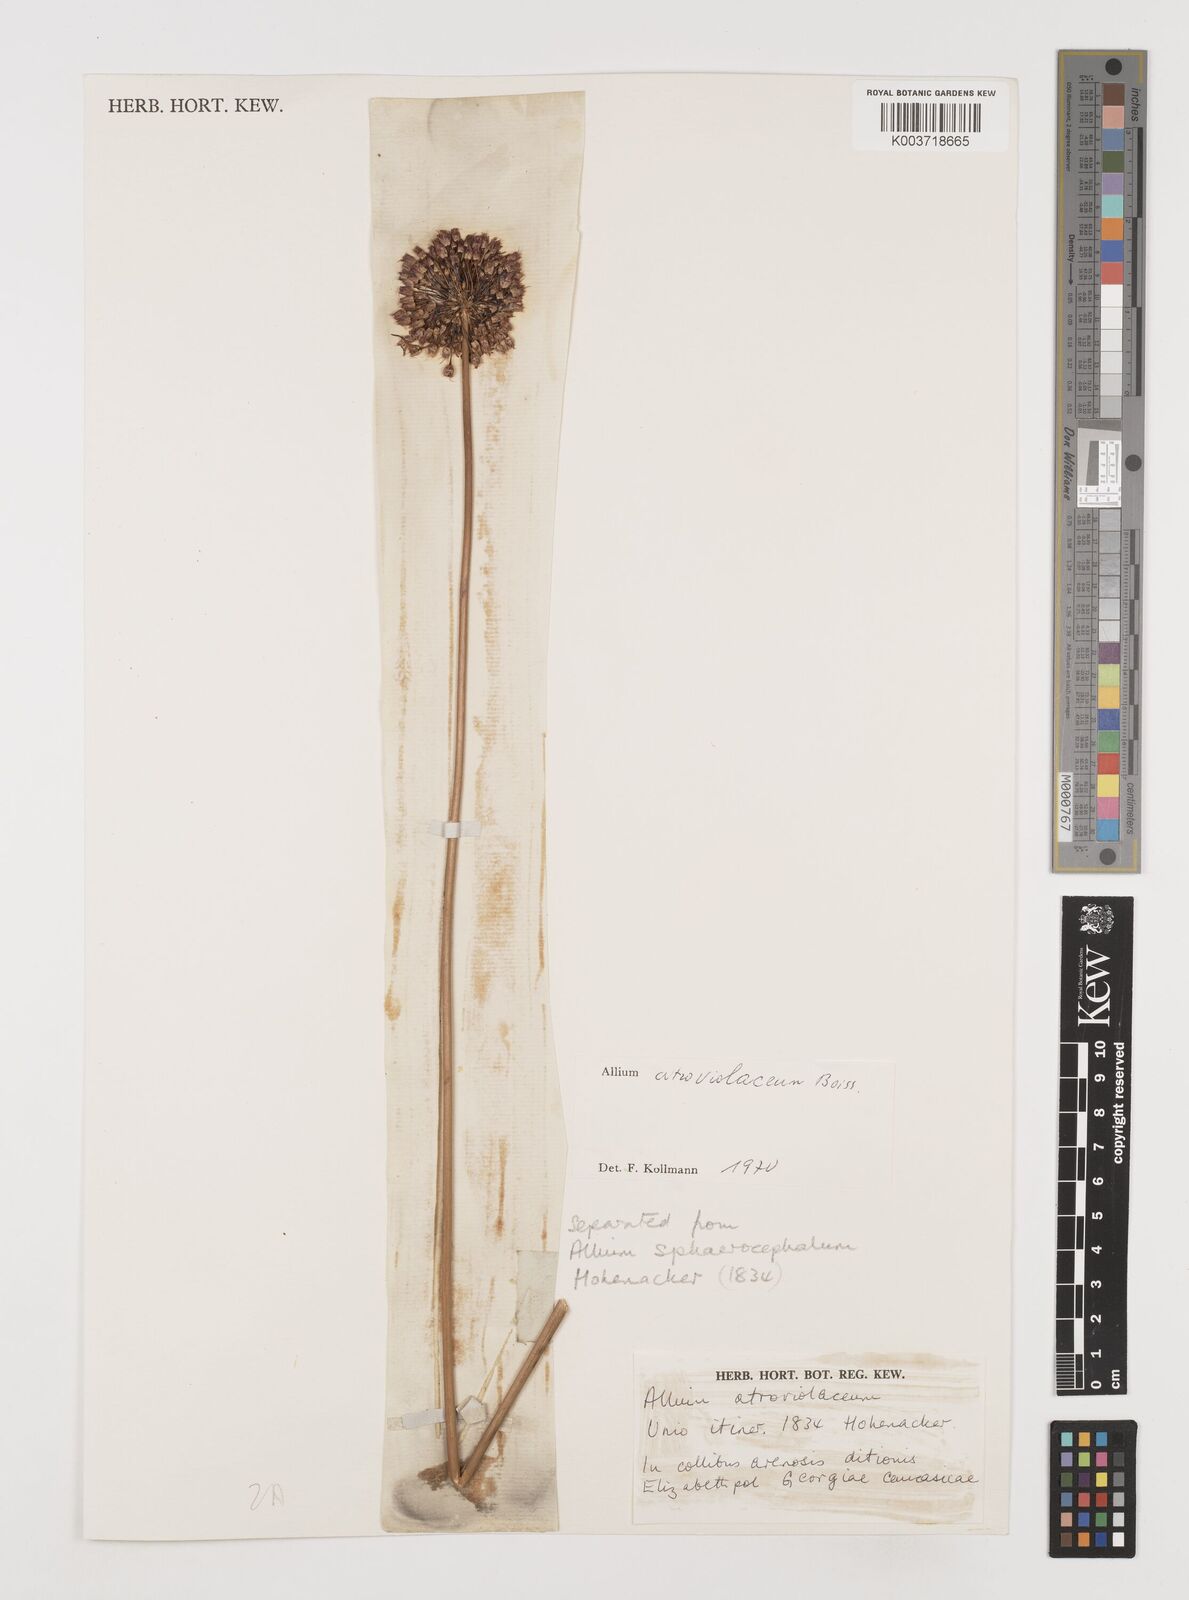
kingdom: Plantae
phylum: Tracheophyta
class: Liliopsida
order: Asparagales
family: Amaryllidaceae
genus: Allium
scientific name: Allium atroviolaceum
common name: Broadleaf wild leek
